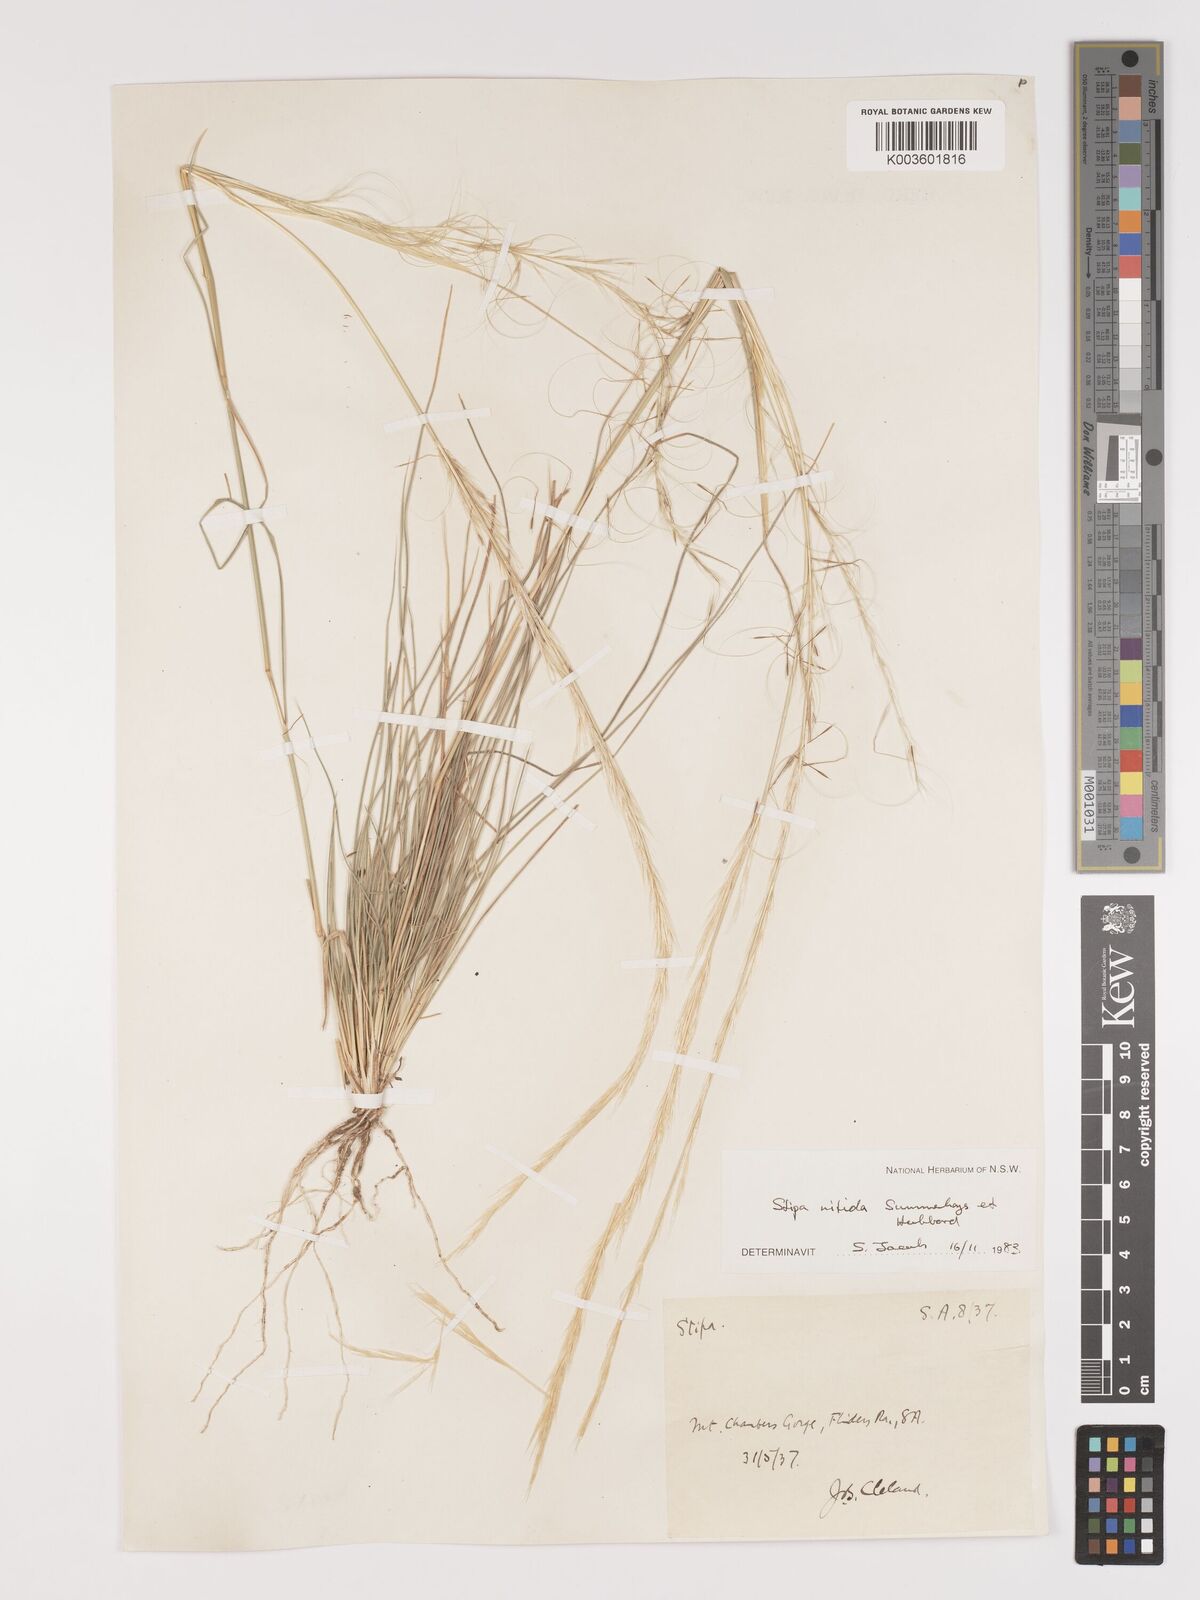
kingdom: Plantae
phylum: Tracheophyta
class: Liliopsida
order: Poales
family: Poaceae
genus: Austrostipa
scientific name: Austrostipa nitida
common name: Balcarra grass
